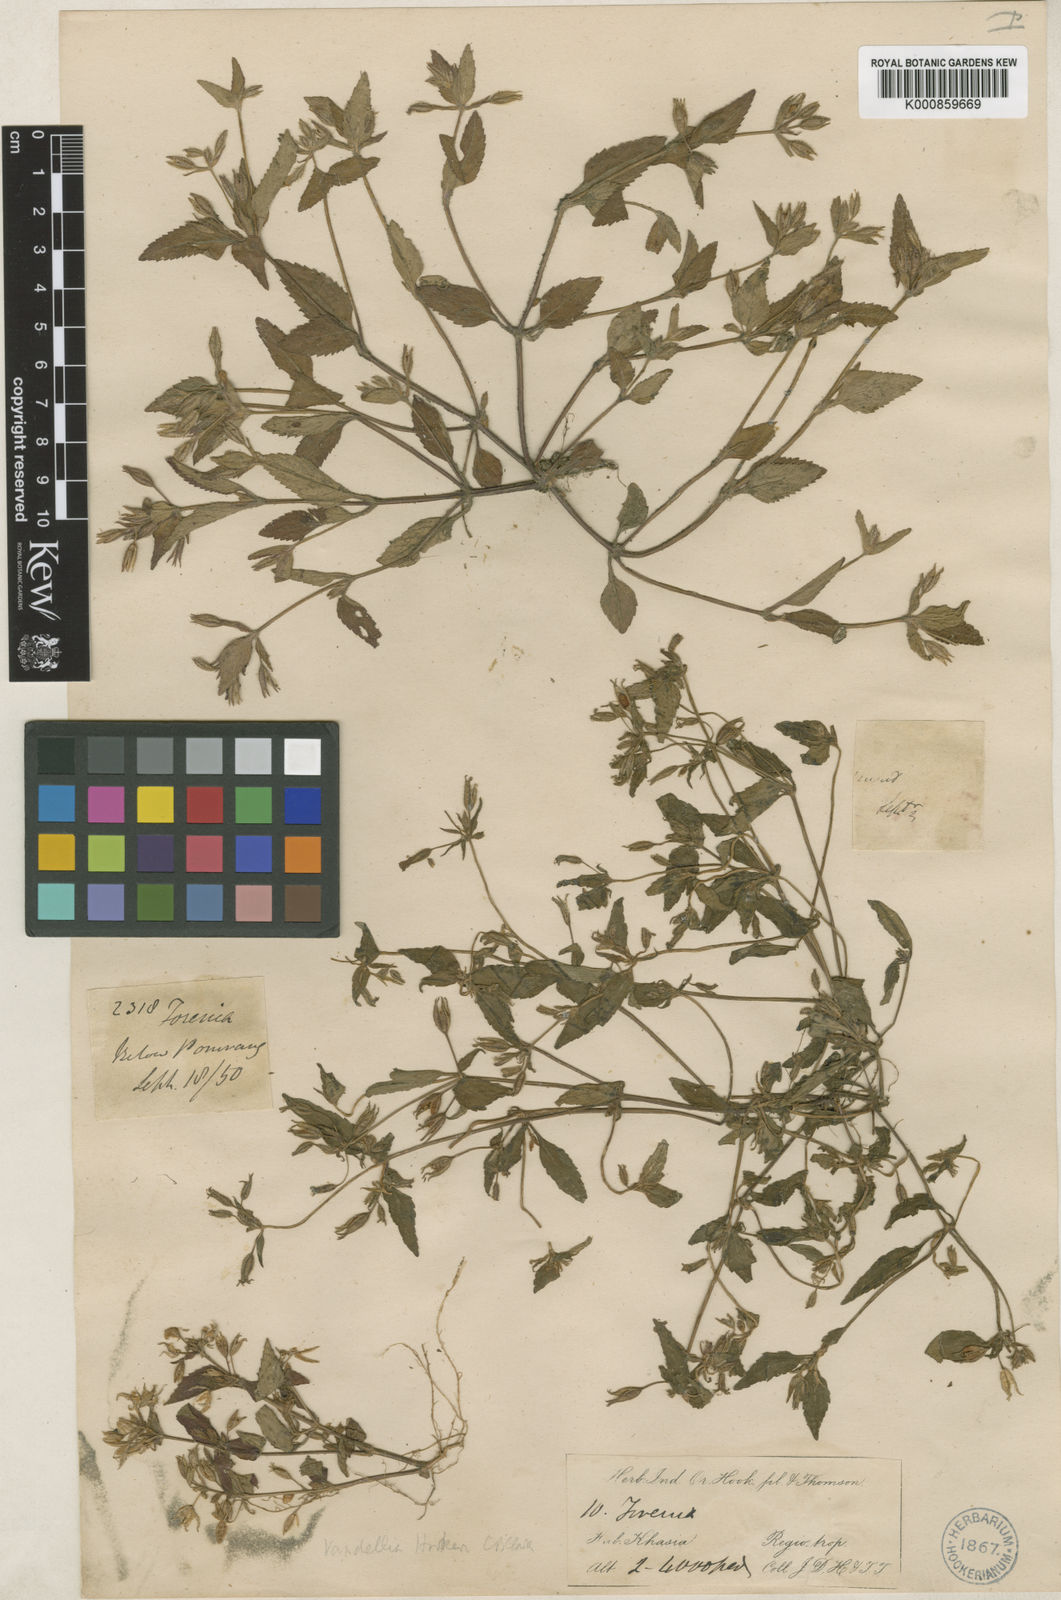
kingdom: Plantae
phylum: Tracheophyta
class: Magnoliopsida
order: Lamiales
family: Linderniaceae
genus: Torenia
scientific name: Torenia hookeri
